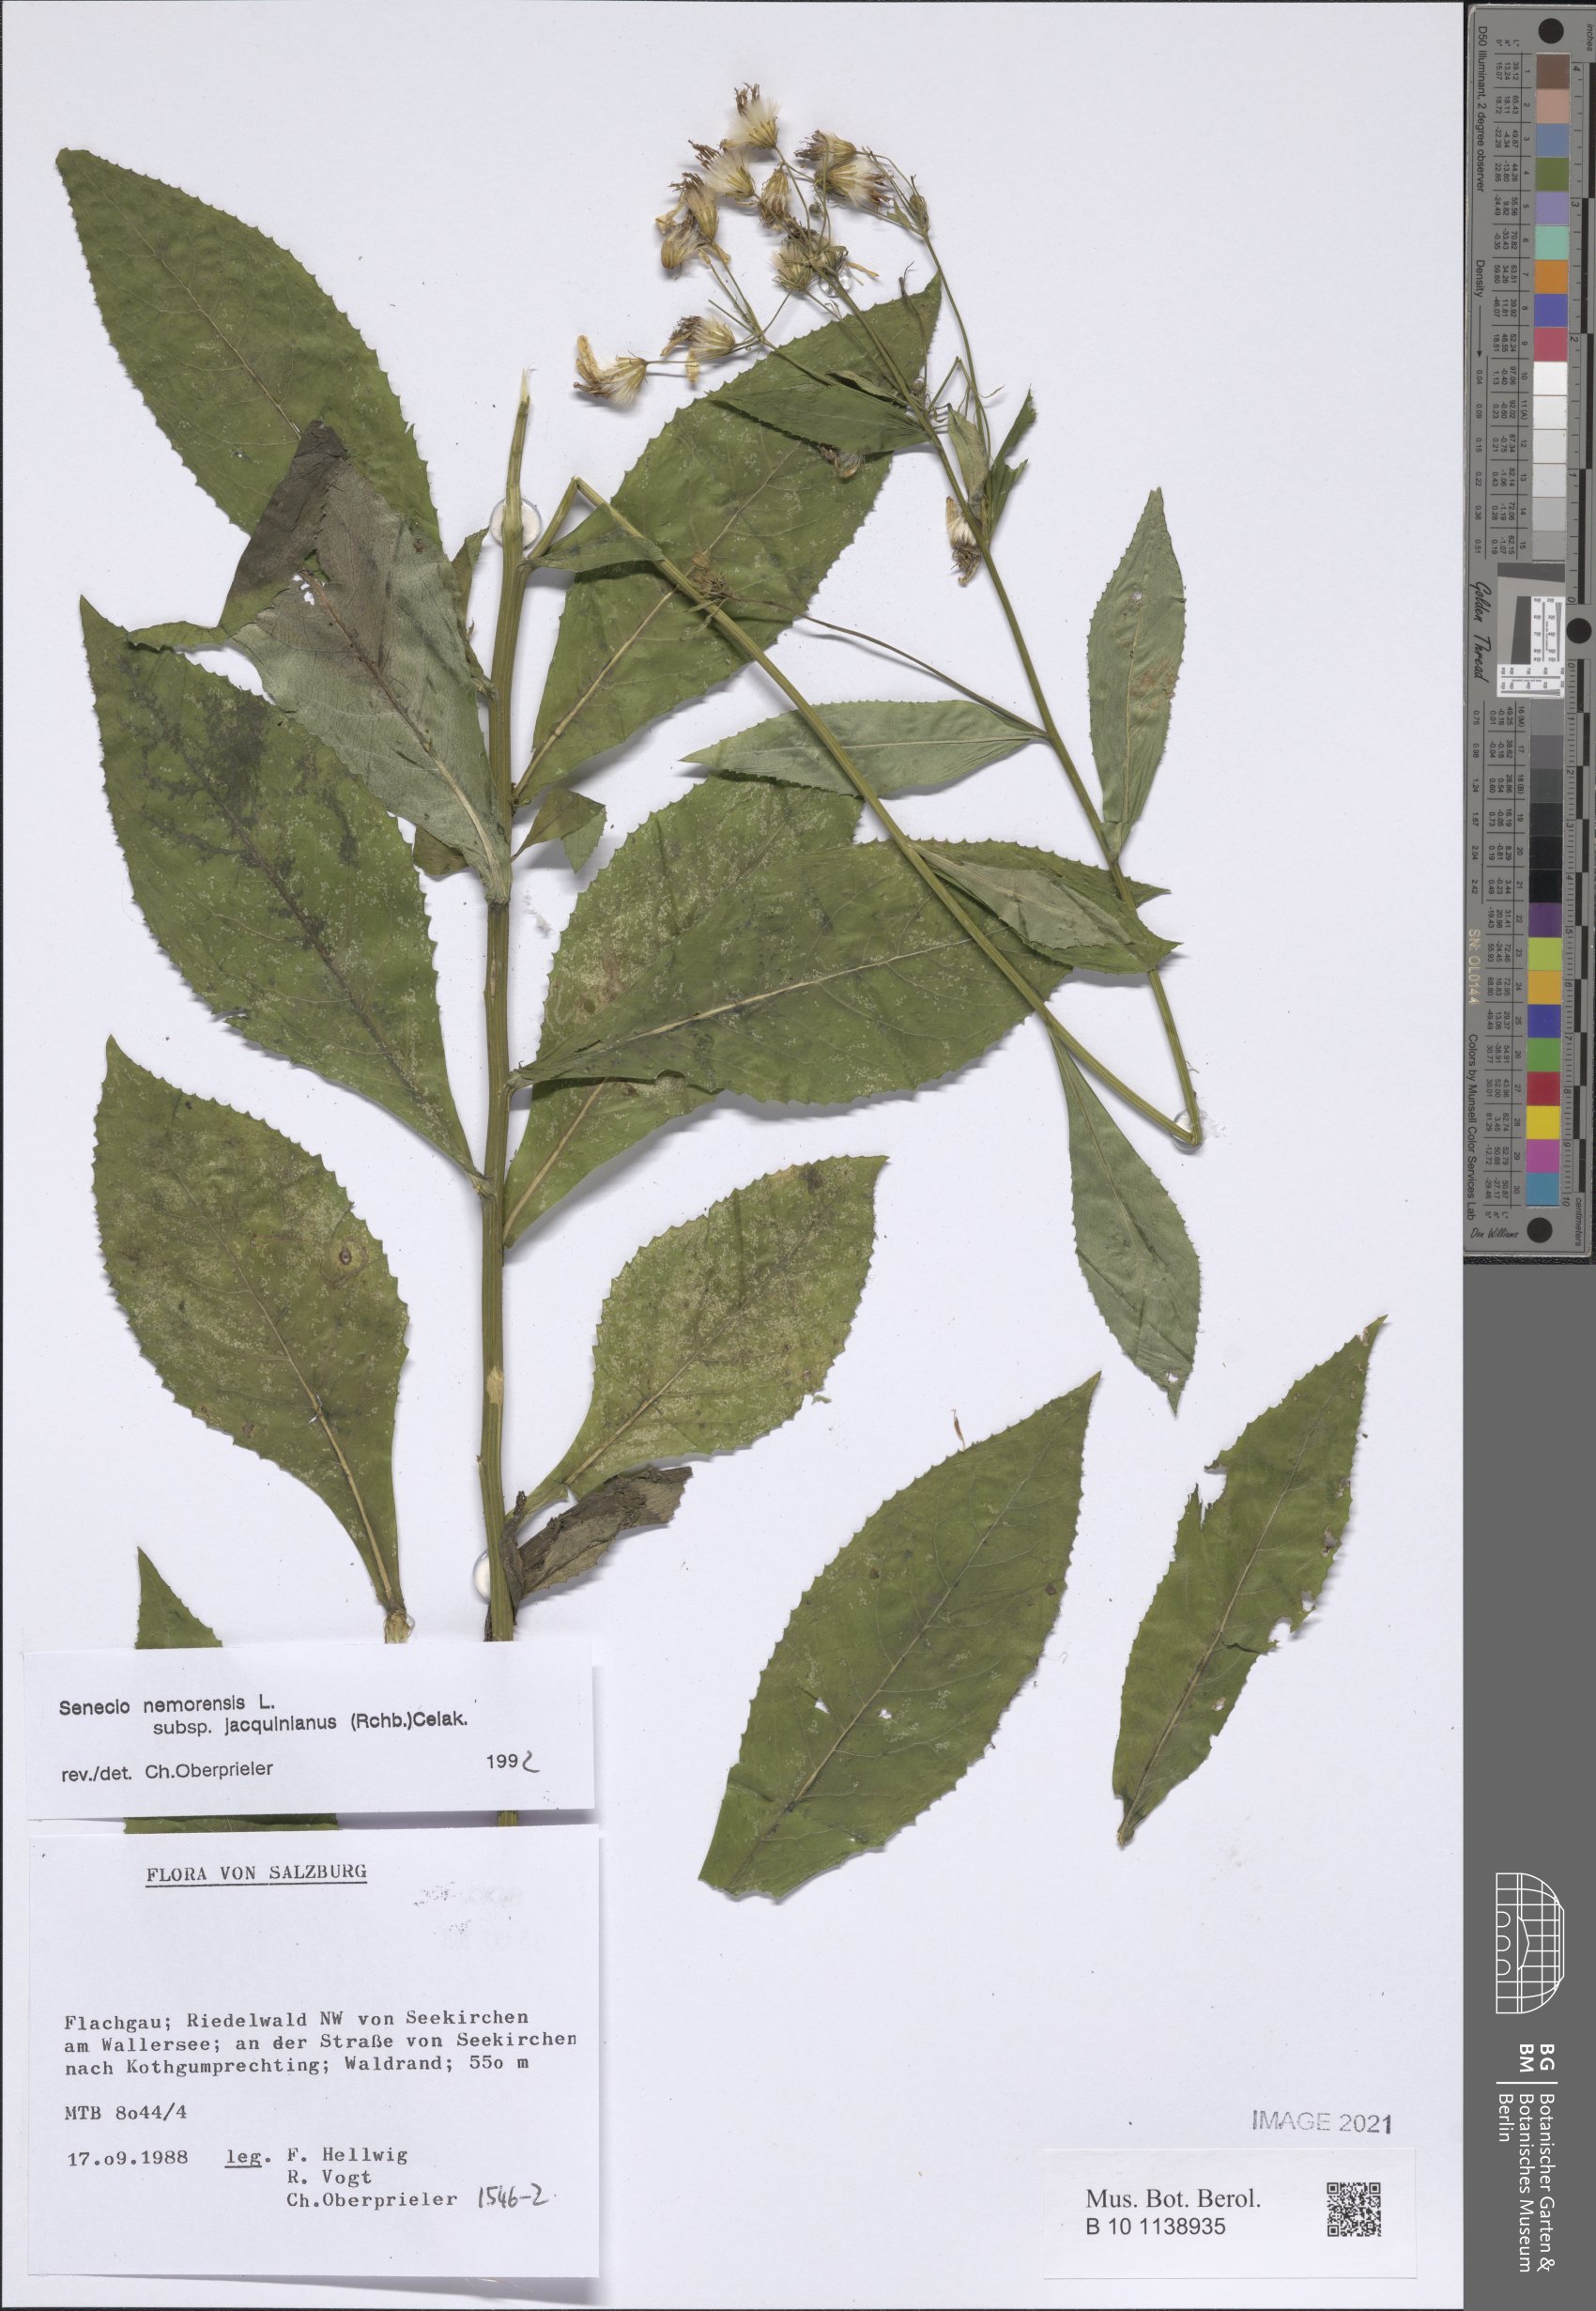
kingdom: Plantae
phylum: Tracheophyta
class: Magnoliopsida
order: Asterales
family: Asteraceae
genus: Senecio
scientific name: Senecio germanicus
